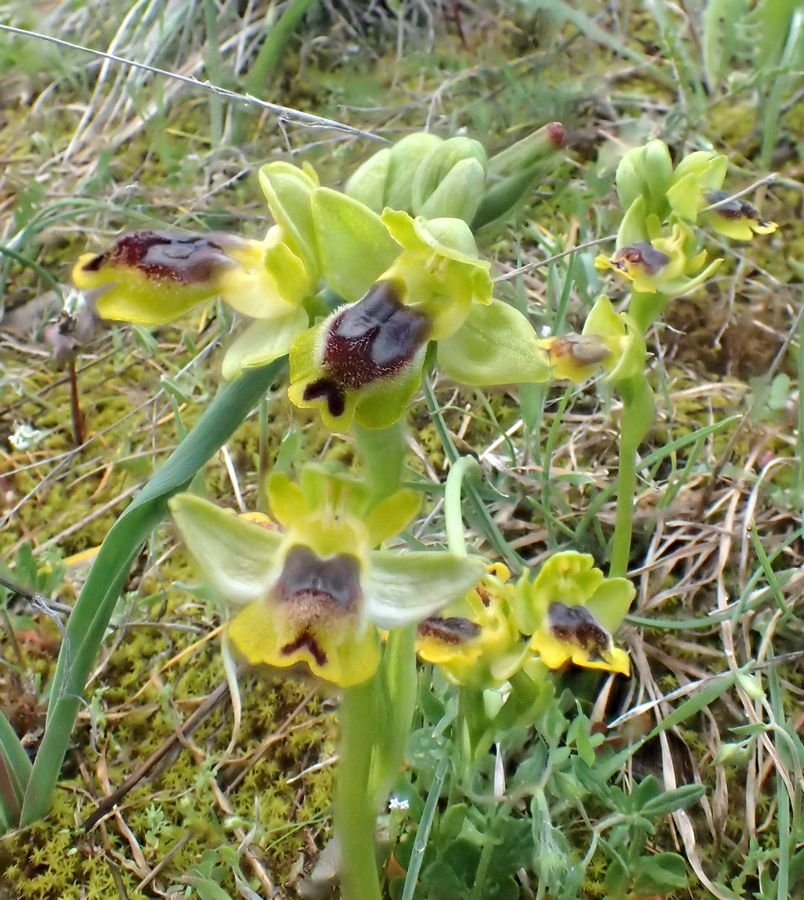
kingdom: Plantae
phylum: Tracheophyta
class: Liliopsida
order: Asparagales
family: Orchidaceae
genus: Ophrys
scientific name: Ophrys lutea
